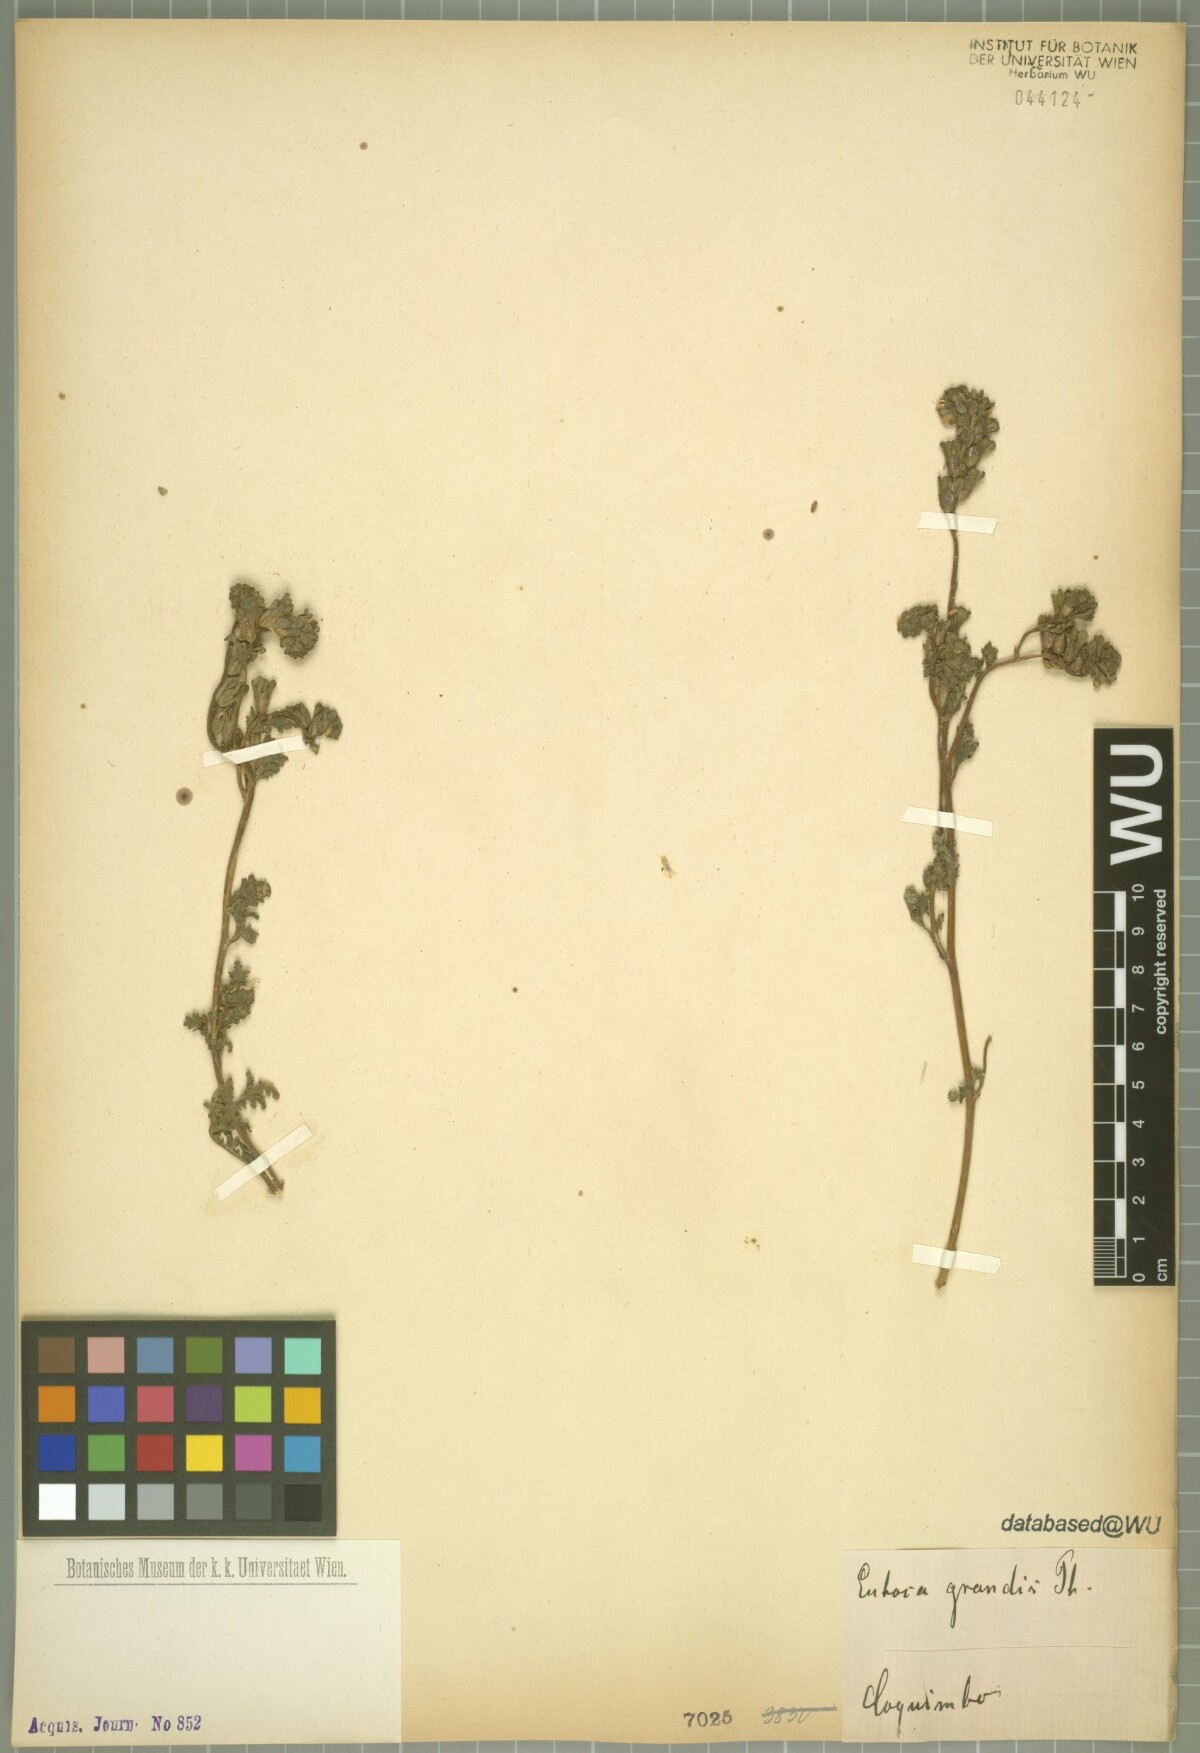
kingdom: Plantae
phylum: Tracheophyta
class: Magnoliopsida
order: Boraginales
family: Hydrophyllaceae
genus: Phacelia
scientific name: Phacelia cumingii
